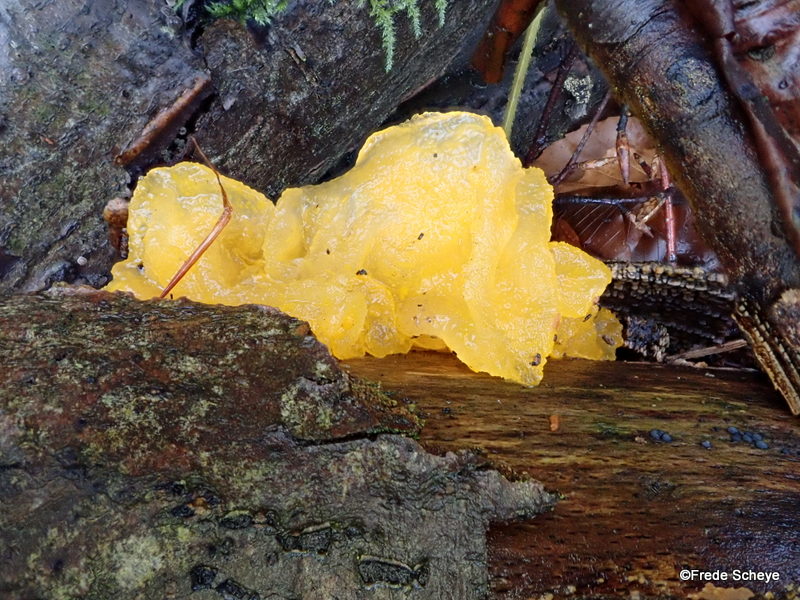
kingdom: Fungi
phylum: Basidiomycota
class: Tremellomycetes
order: Tremellales
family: Tremellaceae
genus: Tremella
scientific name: Tremella mesenterica
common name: gul bævresvamp
